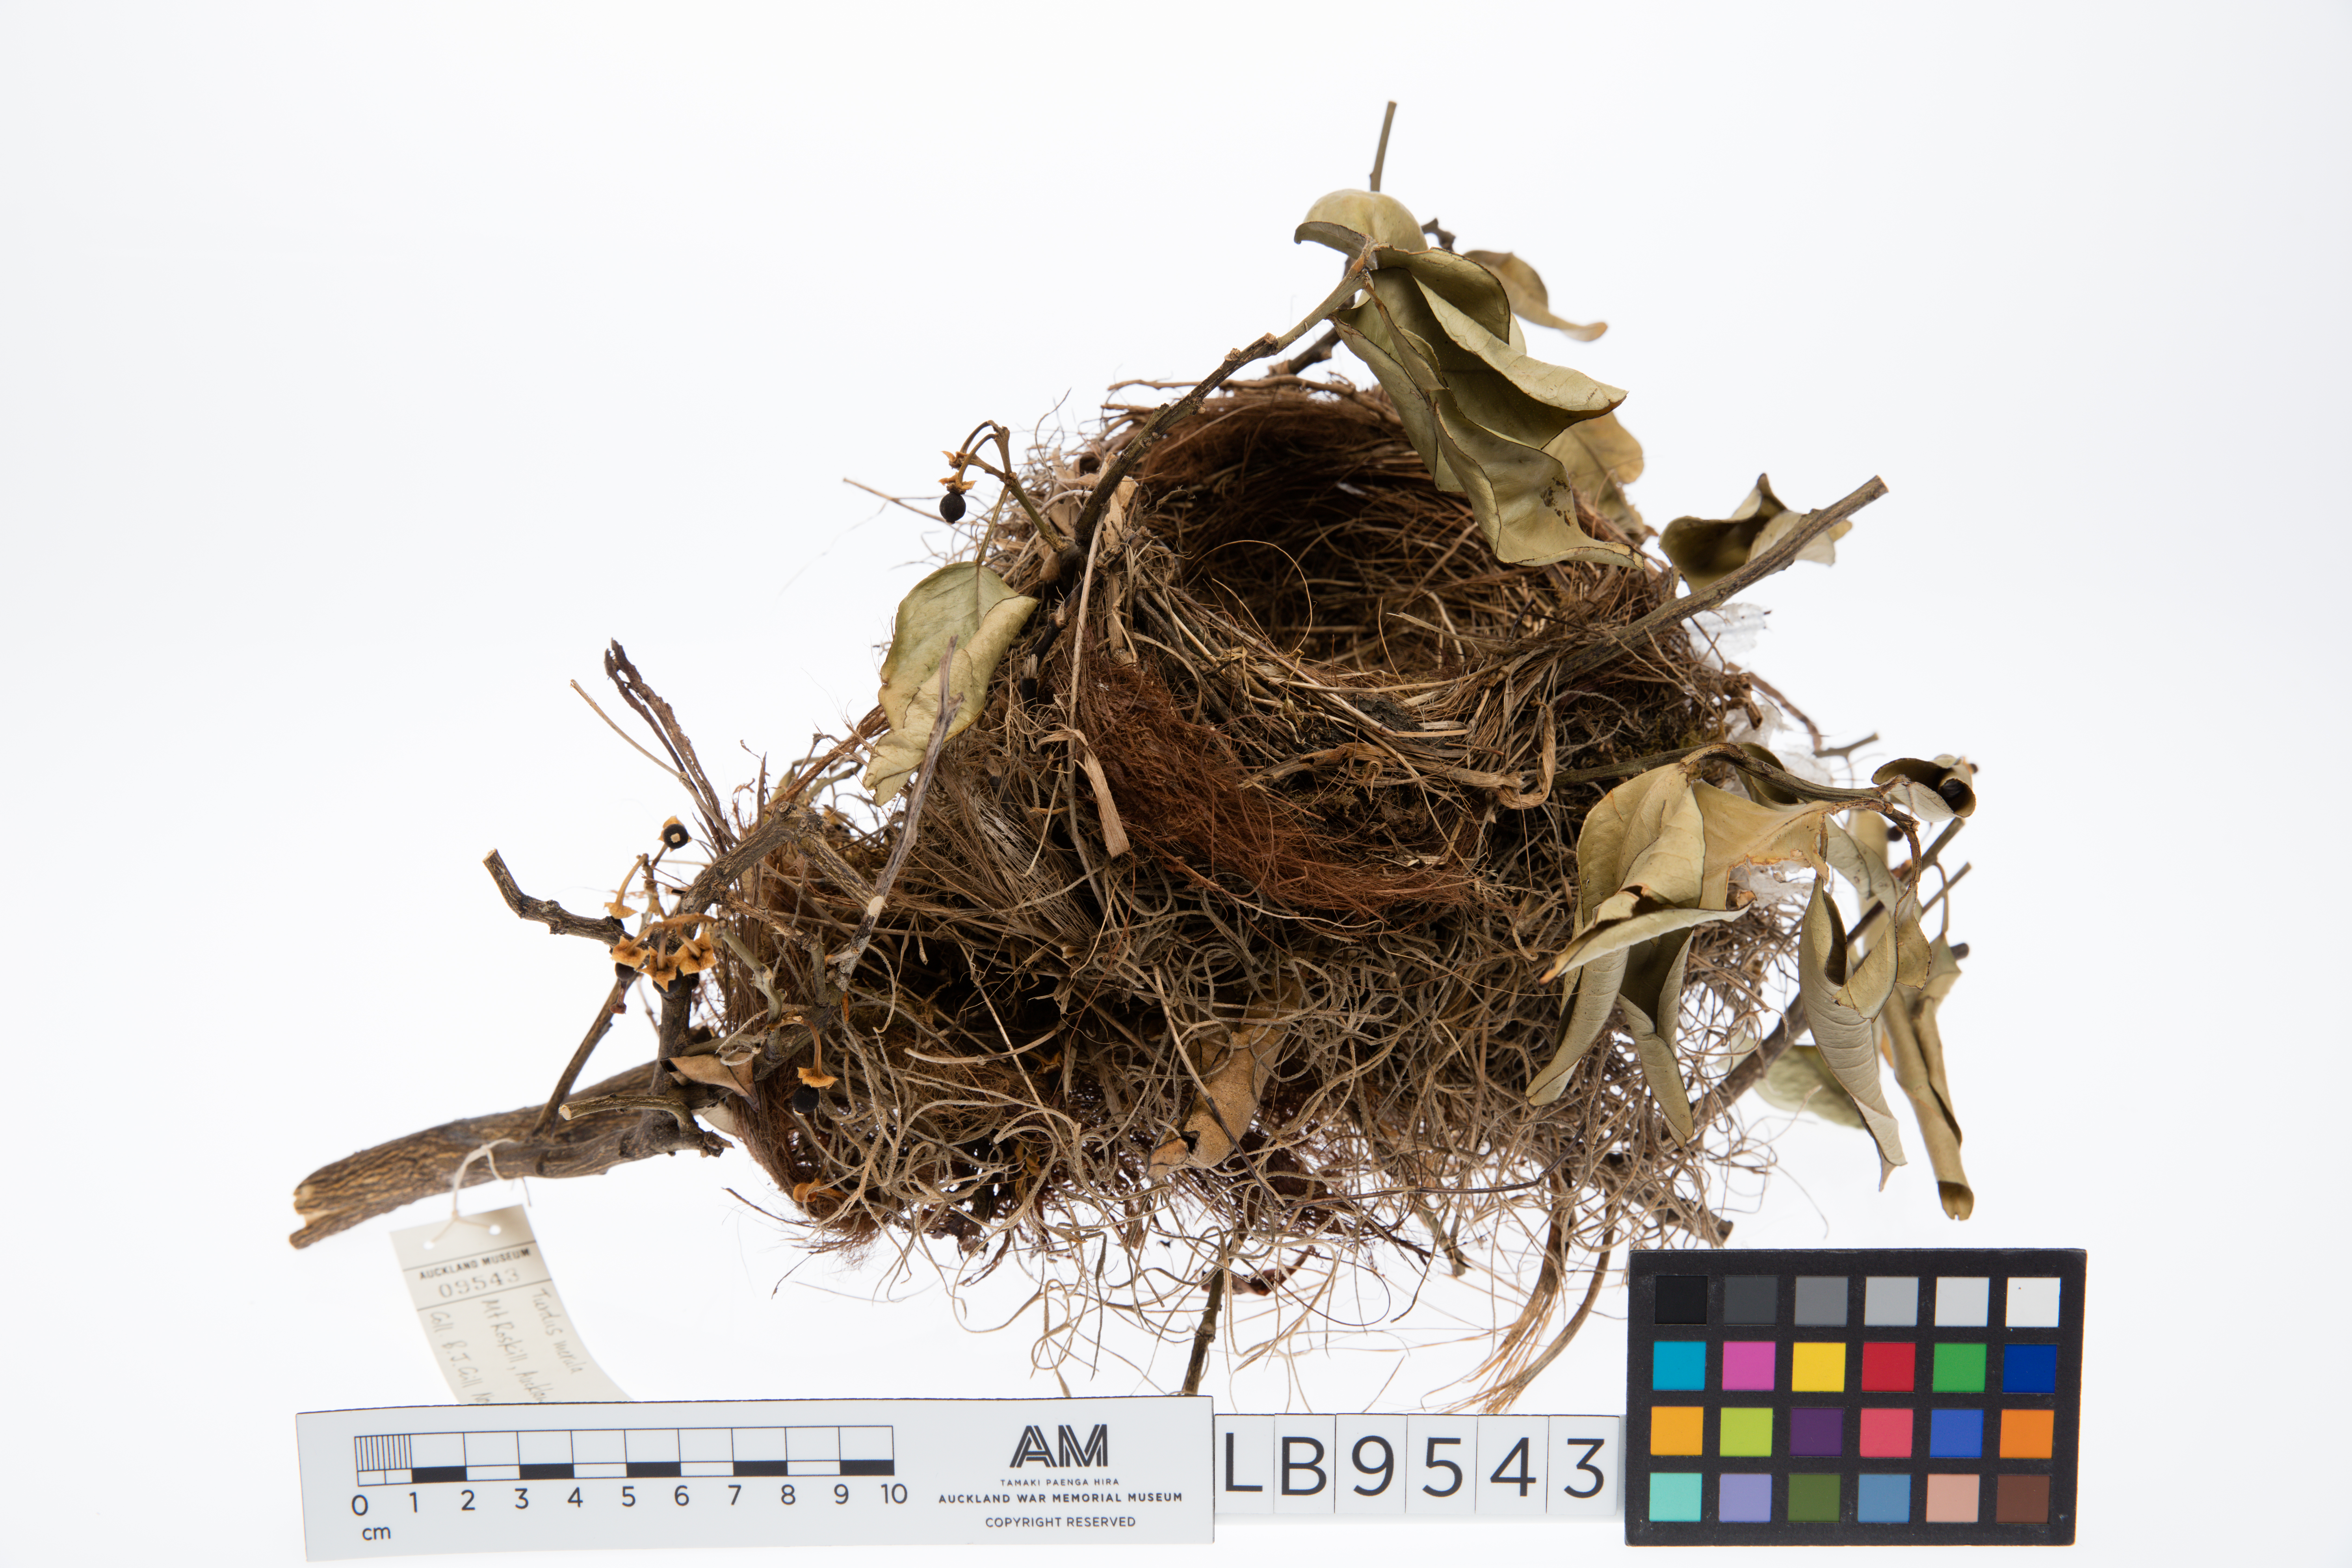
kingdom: Animalia
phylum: Chordata
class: Aves
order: Passeriformes
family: Turdidae
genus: Turdus
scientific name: Turdus merula
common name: Common blackbird
